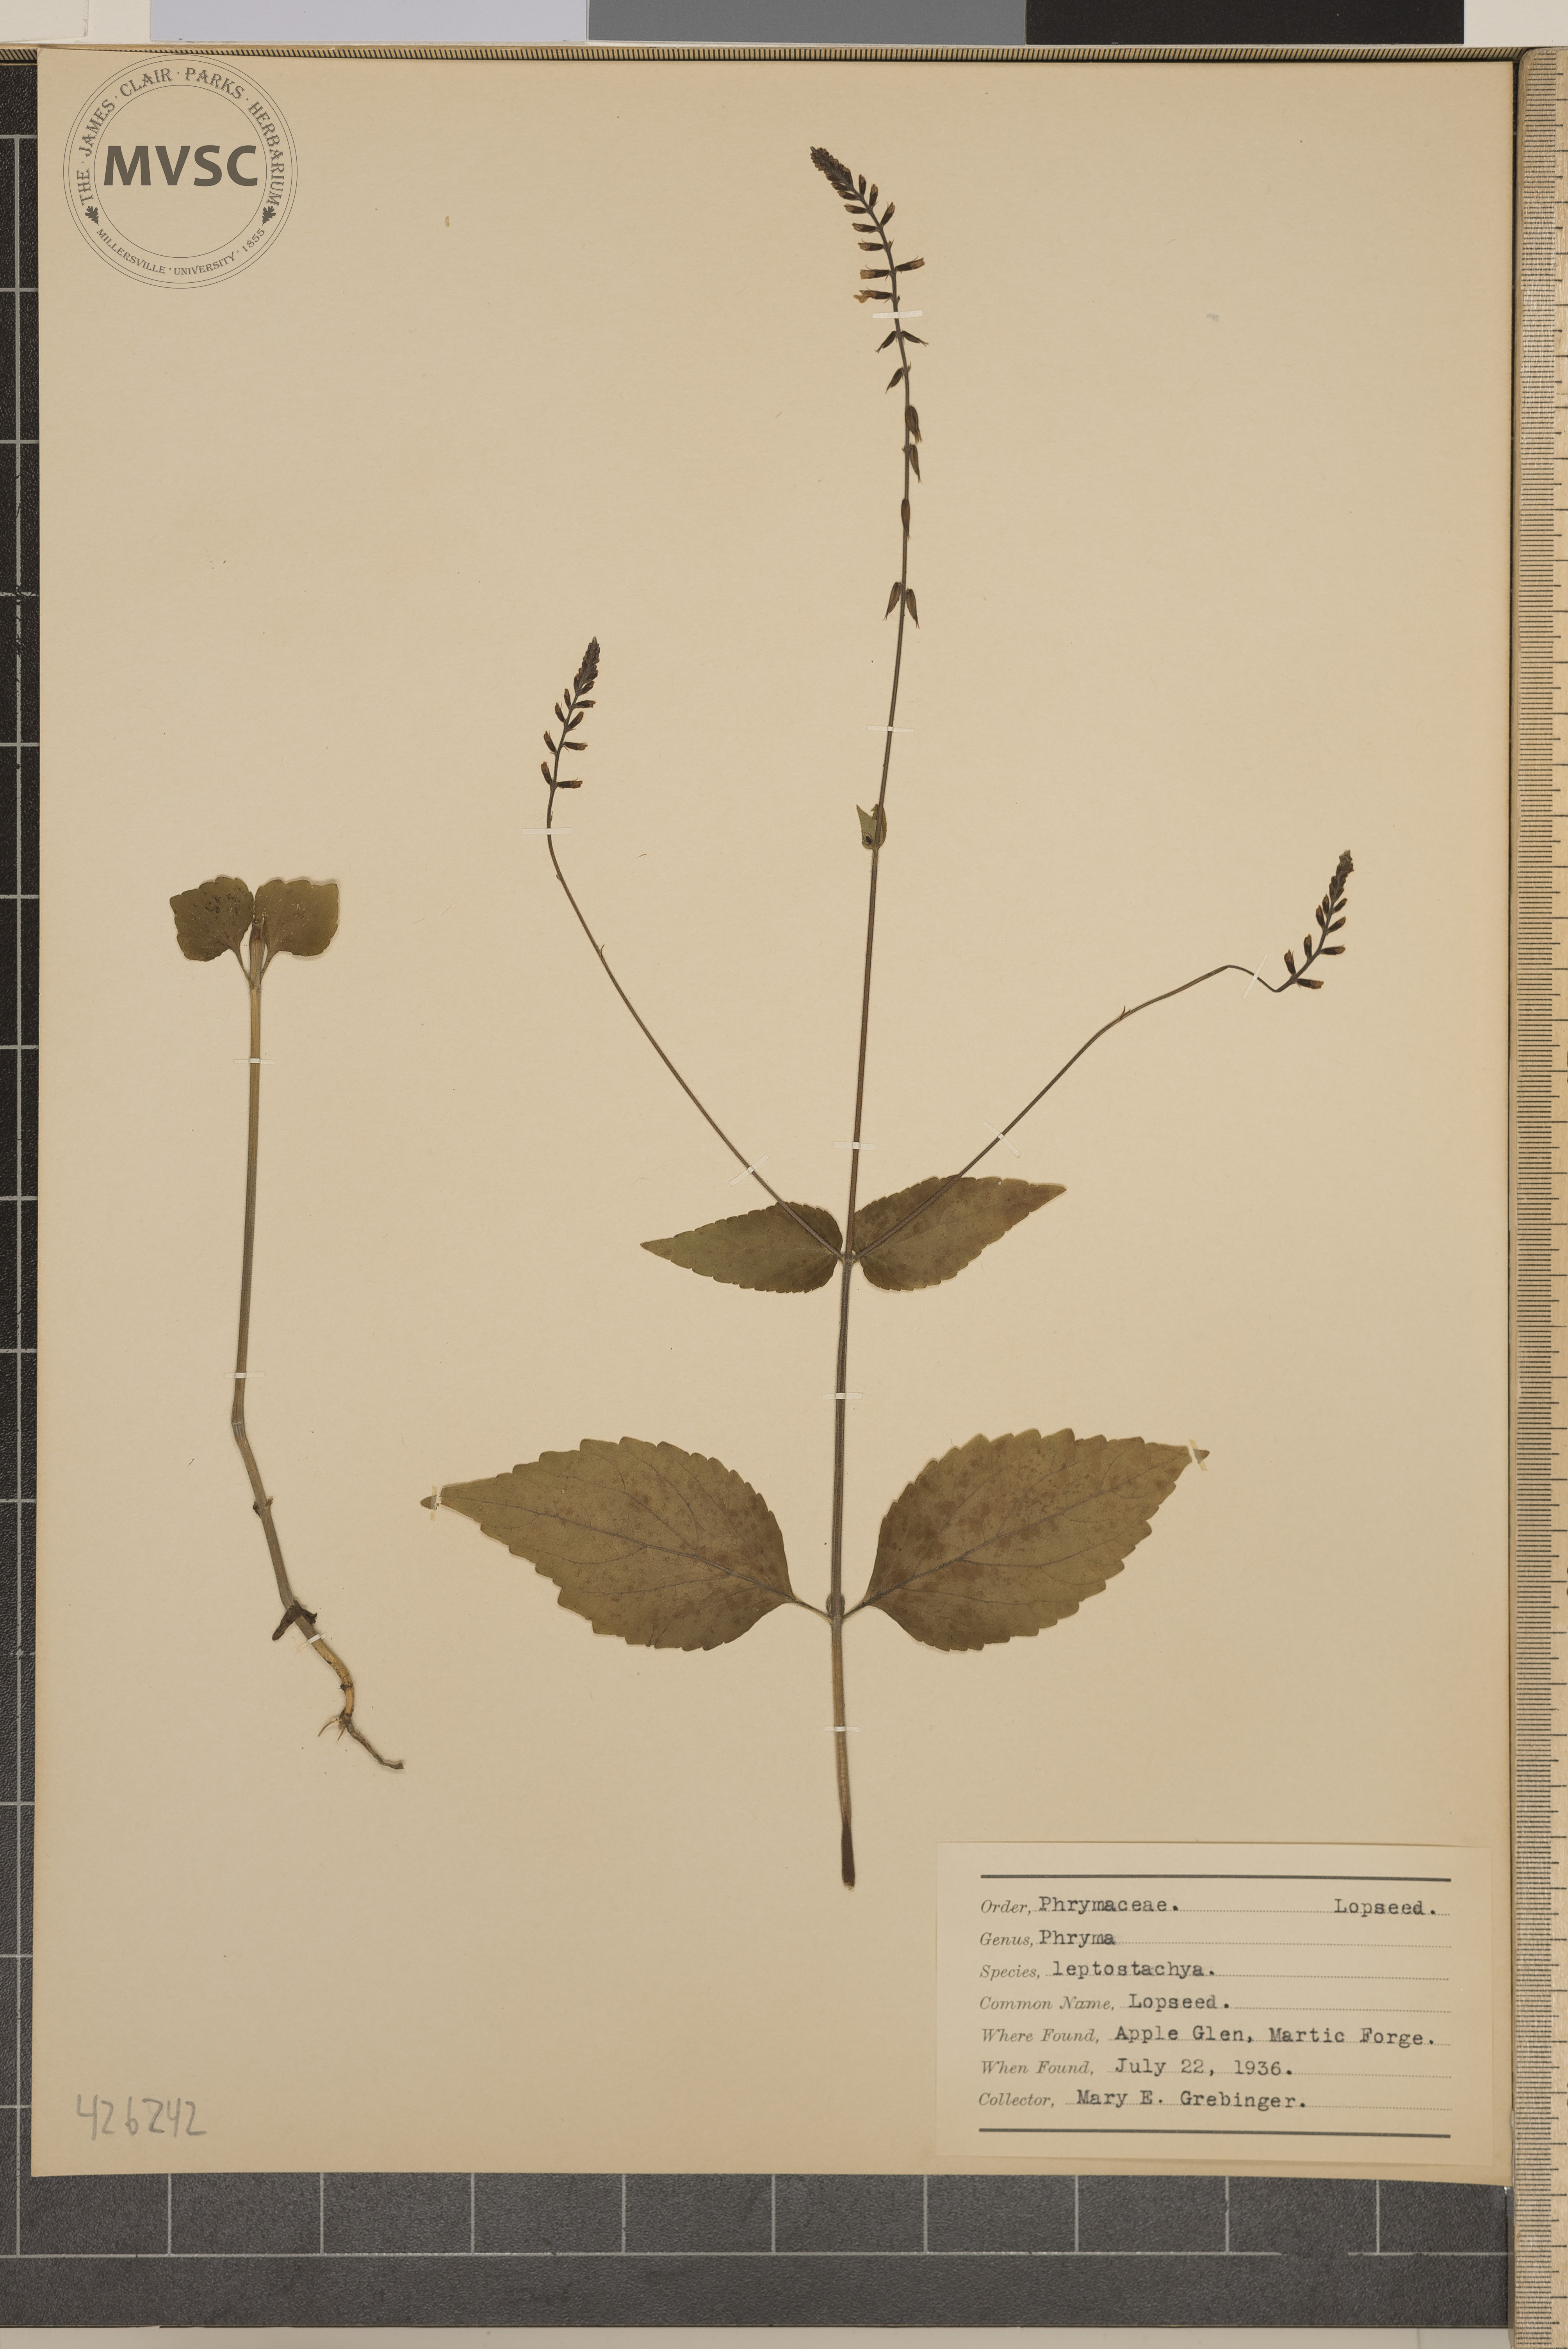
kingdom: Plantae
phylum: Tracheophyta
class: Magnoliopsida
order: Lamiales
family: Phrymaceae
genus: Phryma
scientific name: Phryma leptostachya
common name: Lopseed
